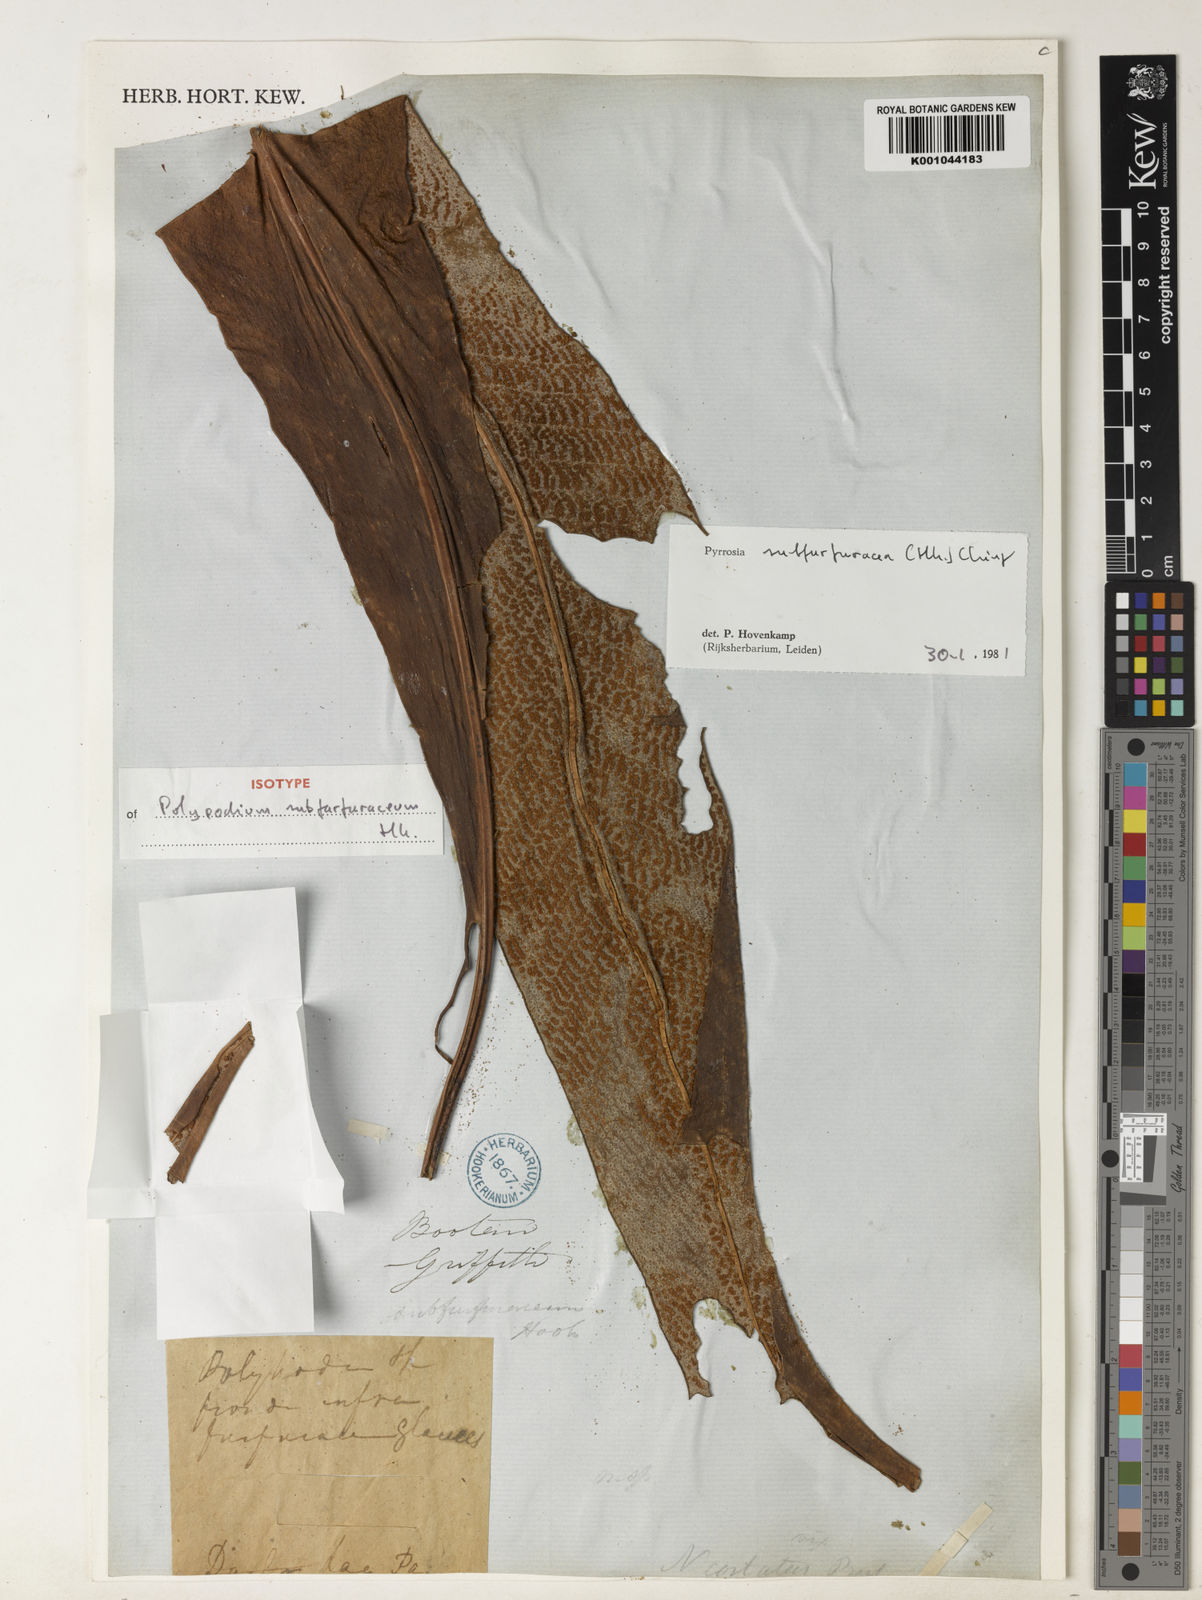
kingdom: Plantae
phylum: Tracheophyta
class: Polypodiopsida
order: Polypodiales
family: Polypodiaceae
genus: Pyrrosia
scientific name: Pyrrosia subfurfuracea
